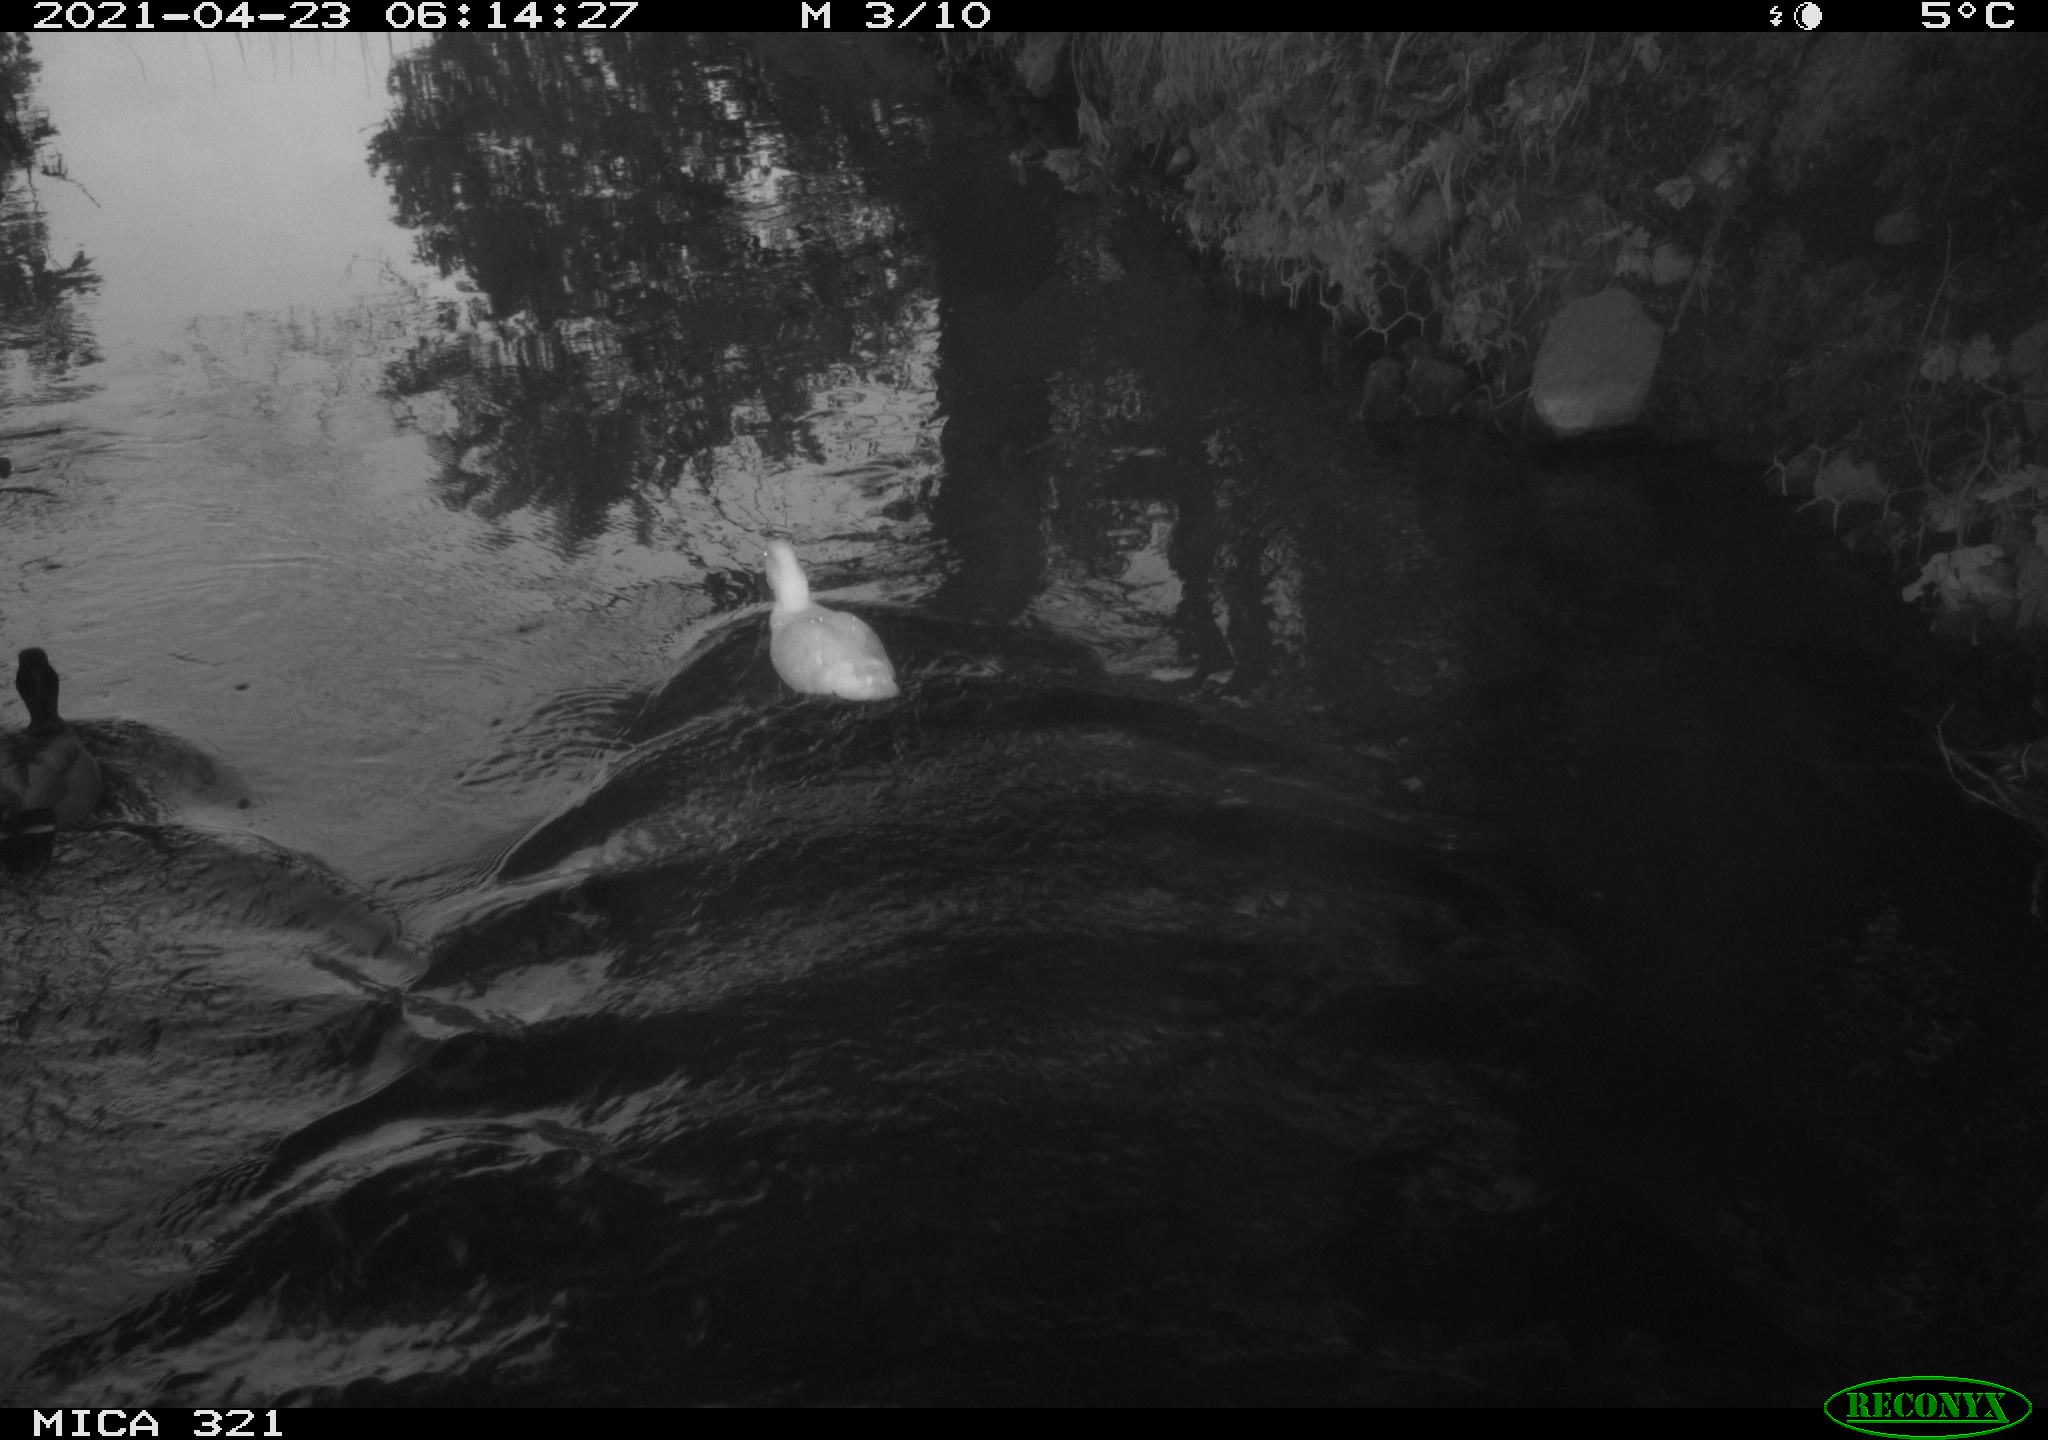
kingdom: Animalia
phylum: Chordata
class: Aves
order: Anseriformes
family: Anatidae
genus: Anas
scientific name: Anas
